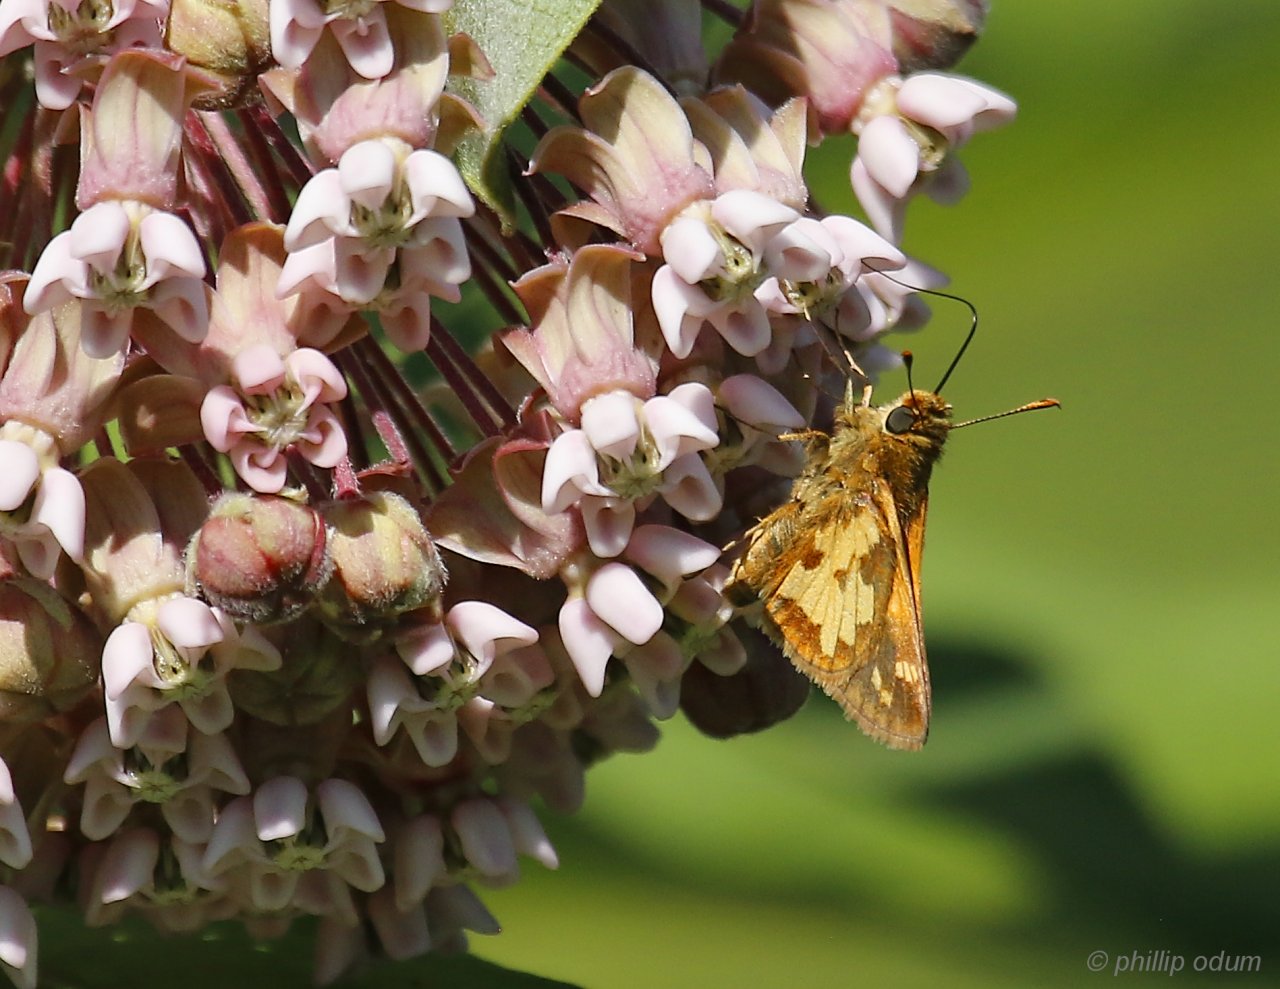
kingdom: Animalia
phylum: Arthropoda
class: Insecta
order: Lepidoptera
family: Hesperiidae
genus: Polites
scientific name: Polites coras
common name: Peck's Skipper
